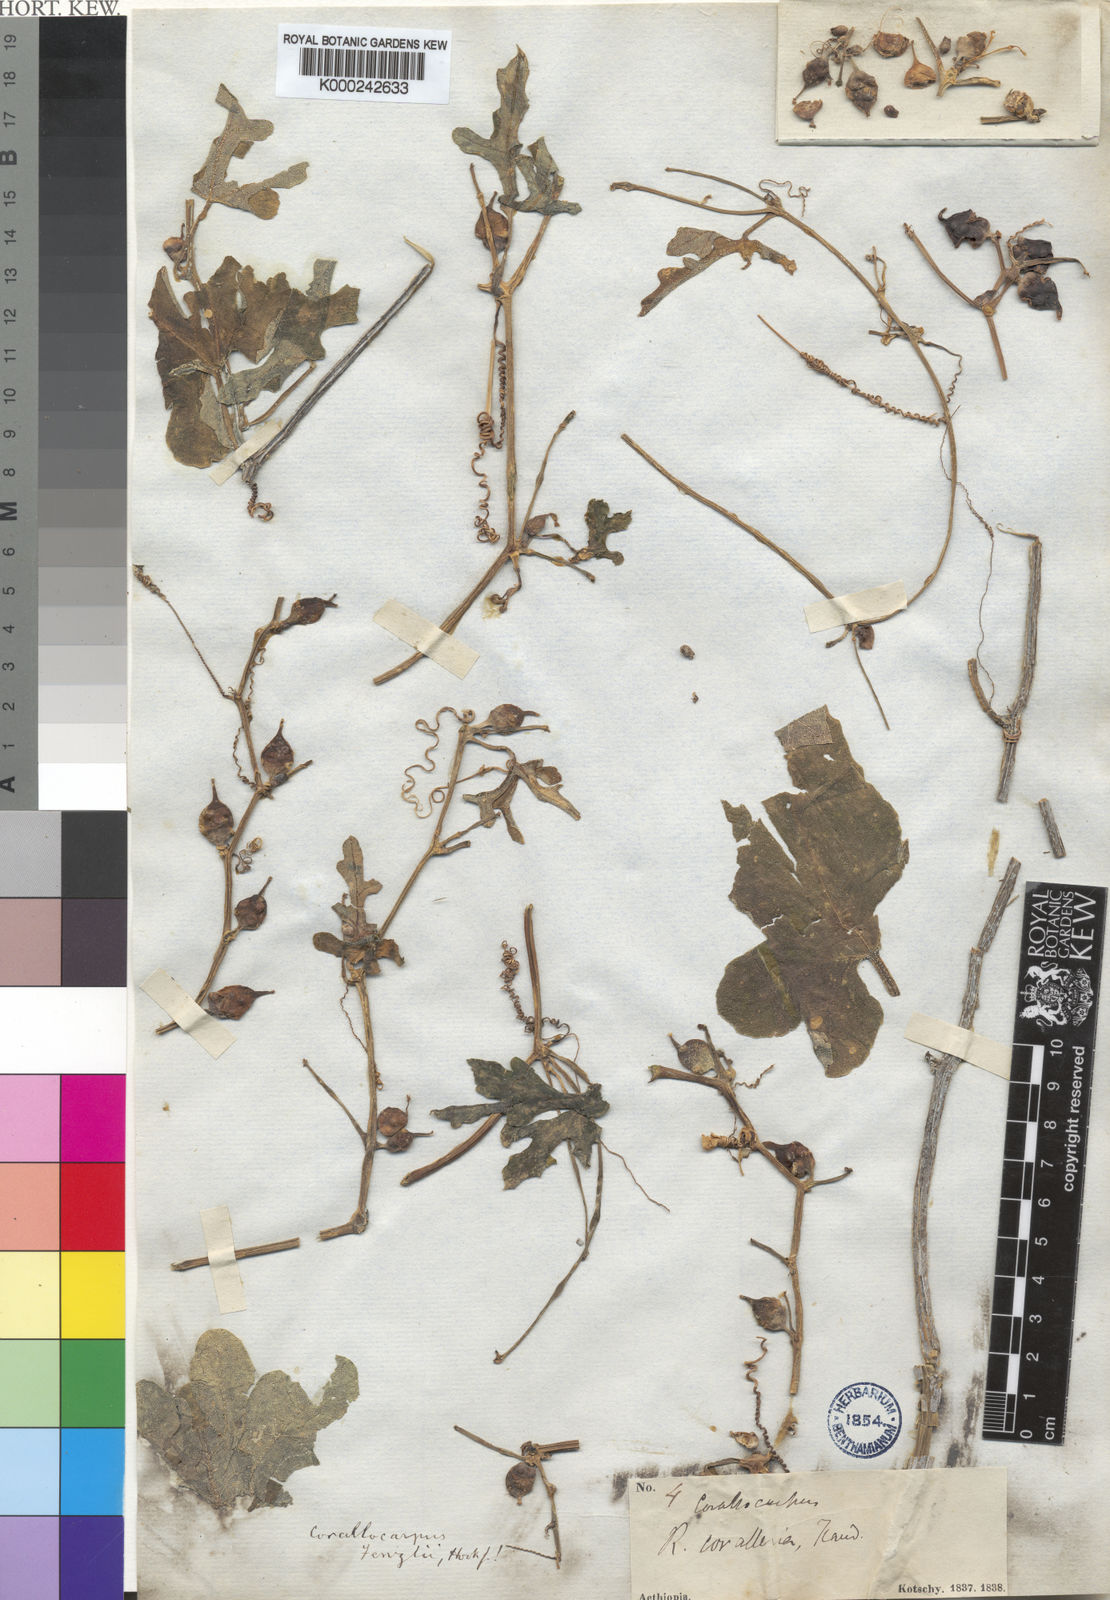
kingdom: Plantae
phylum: Tracheophyta
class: Magnoliopsida
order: Cucurbitales
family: Cucurbitaceae
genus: Corallocarpus
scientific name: Corallocarpus epigaeus
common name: Indian bryonia
